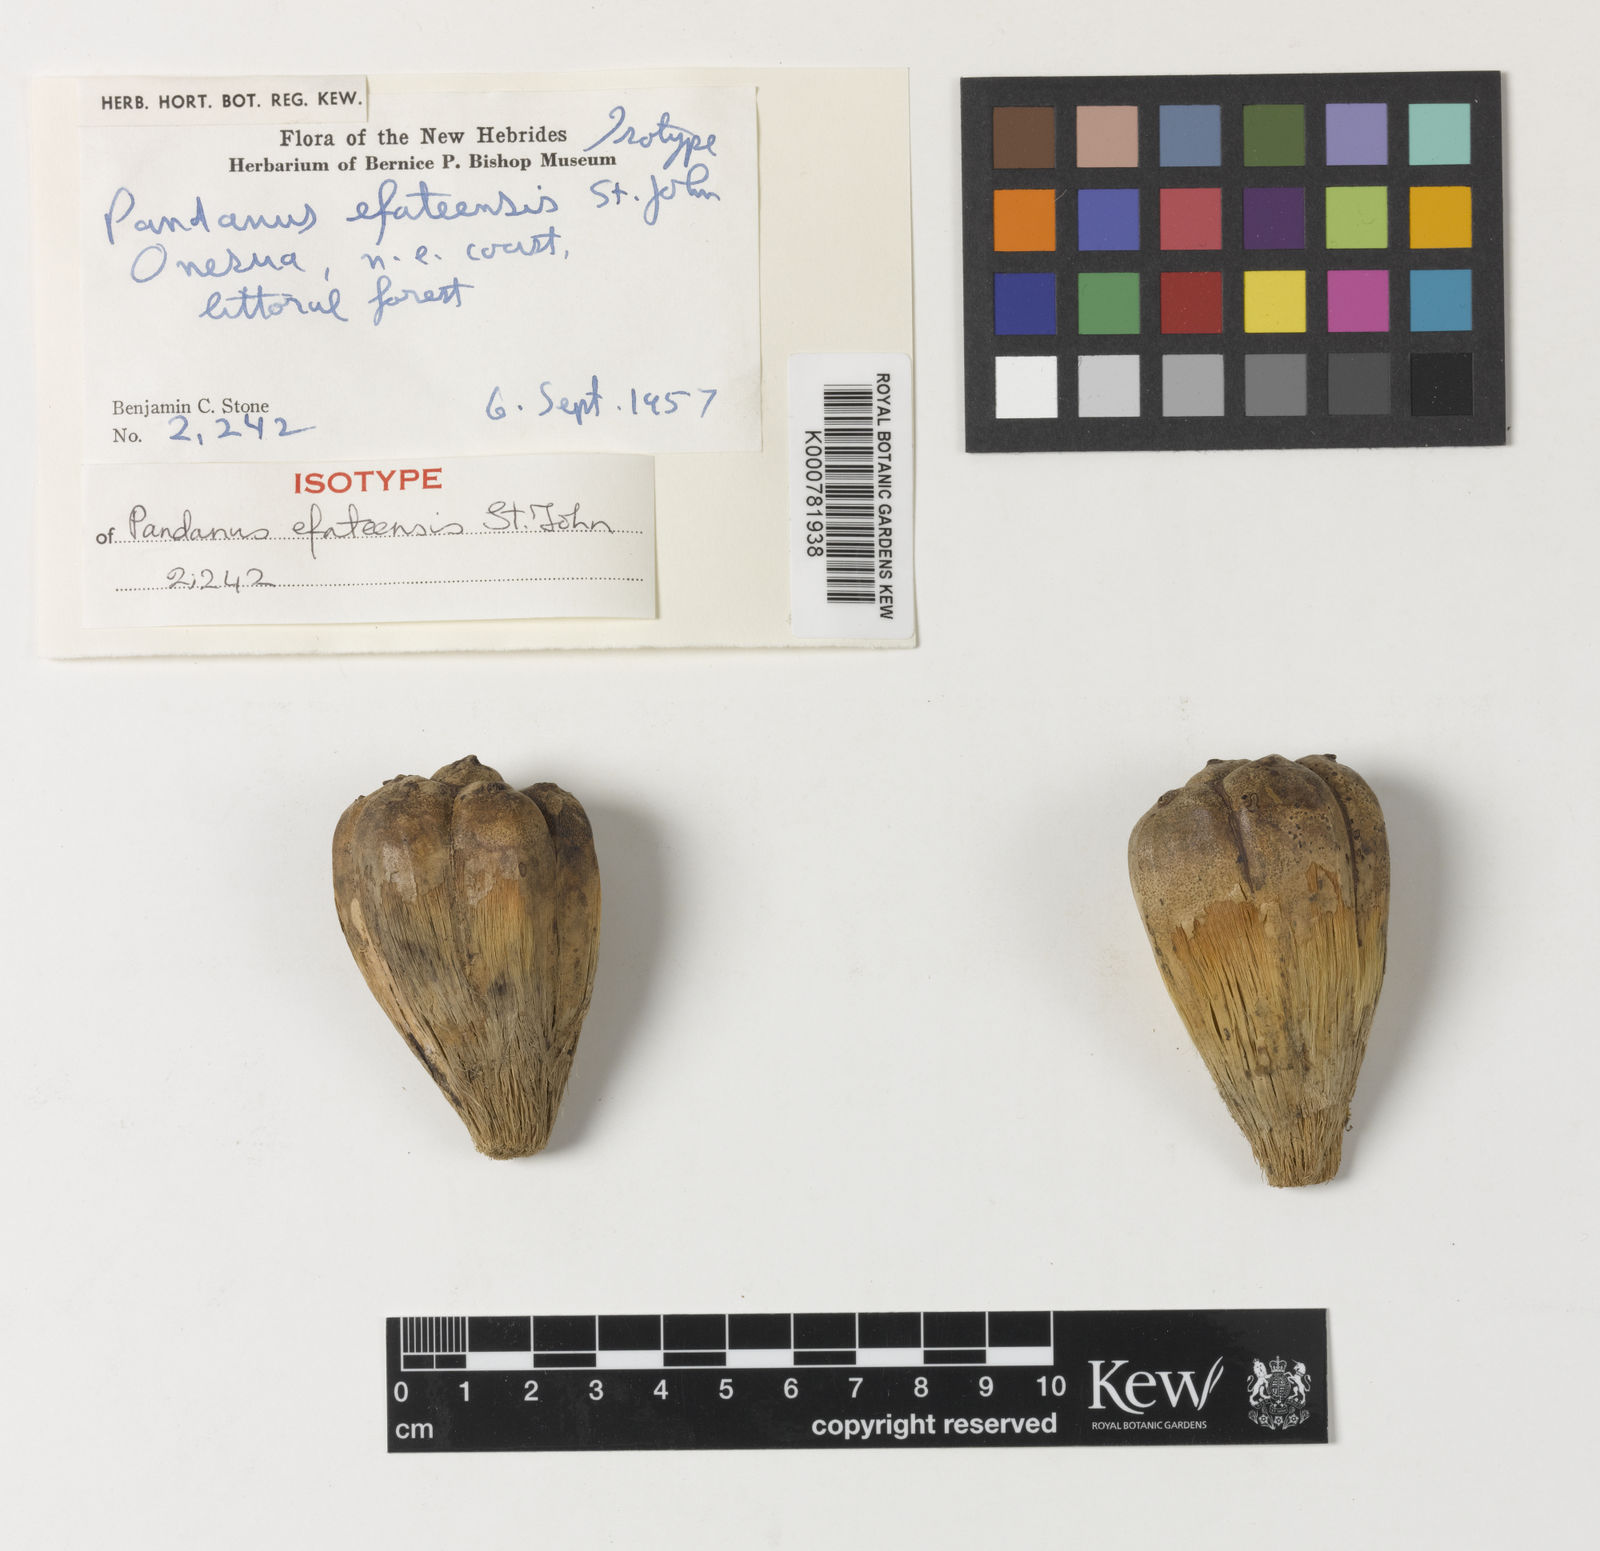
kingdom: Plantae
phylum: Tracheophyta
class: Liliopsida
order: Pandanales
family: Pandanaceae
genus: Pandanus
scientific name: Pandanus efateensis
